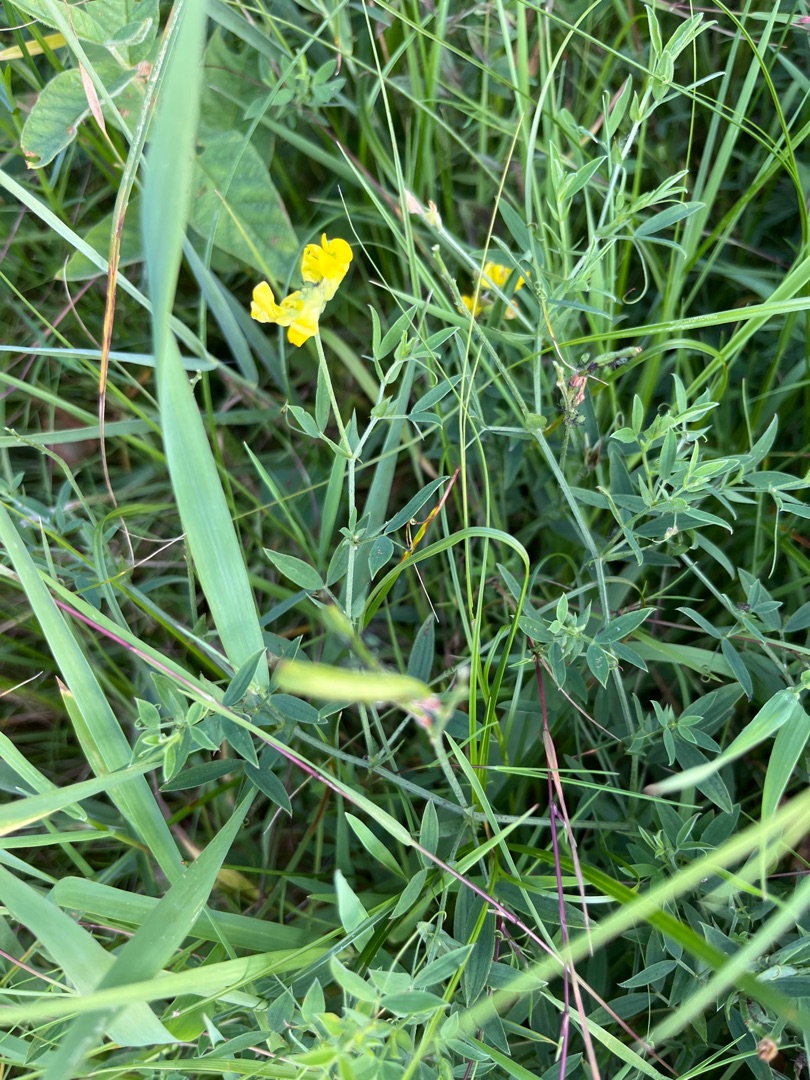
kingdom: Plantae
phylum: Tracheophyta
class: Magnoliopsida
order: Fabales
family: Fabaceae
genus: Lathyrus
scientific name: Lathyrus pratensis
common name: Gul fladbælg
